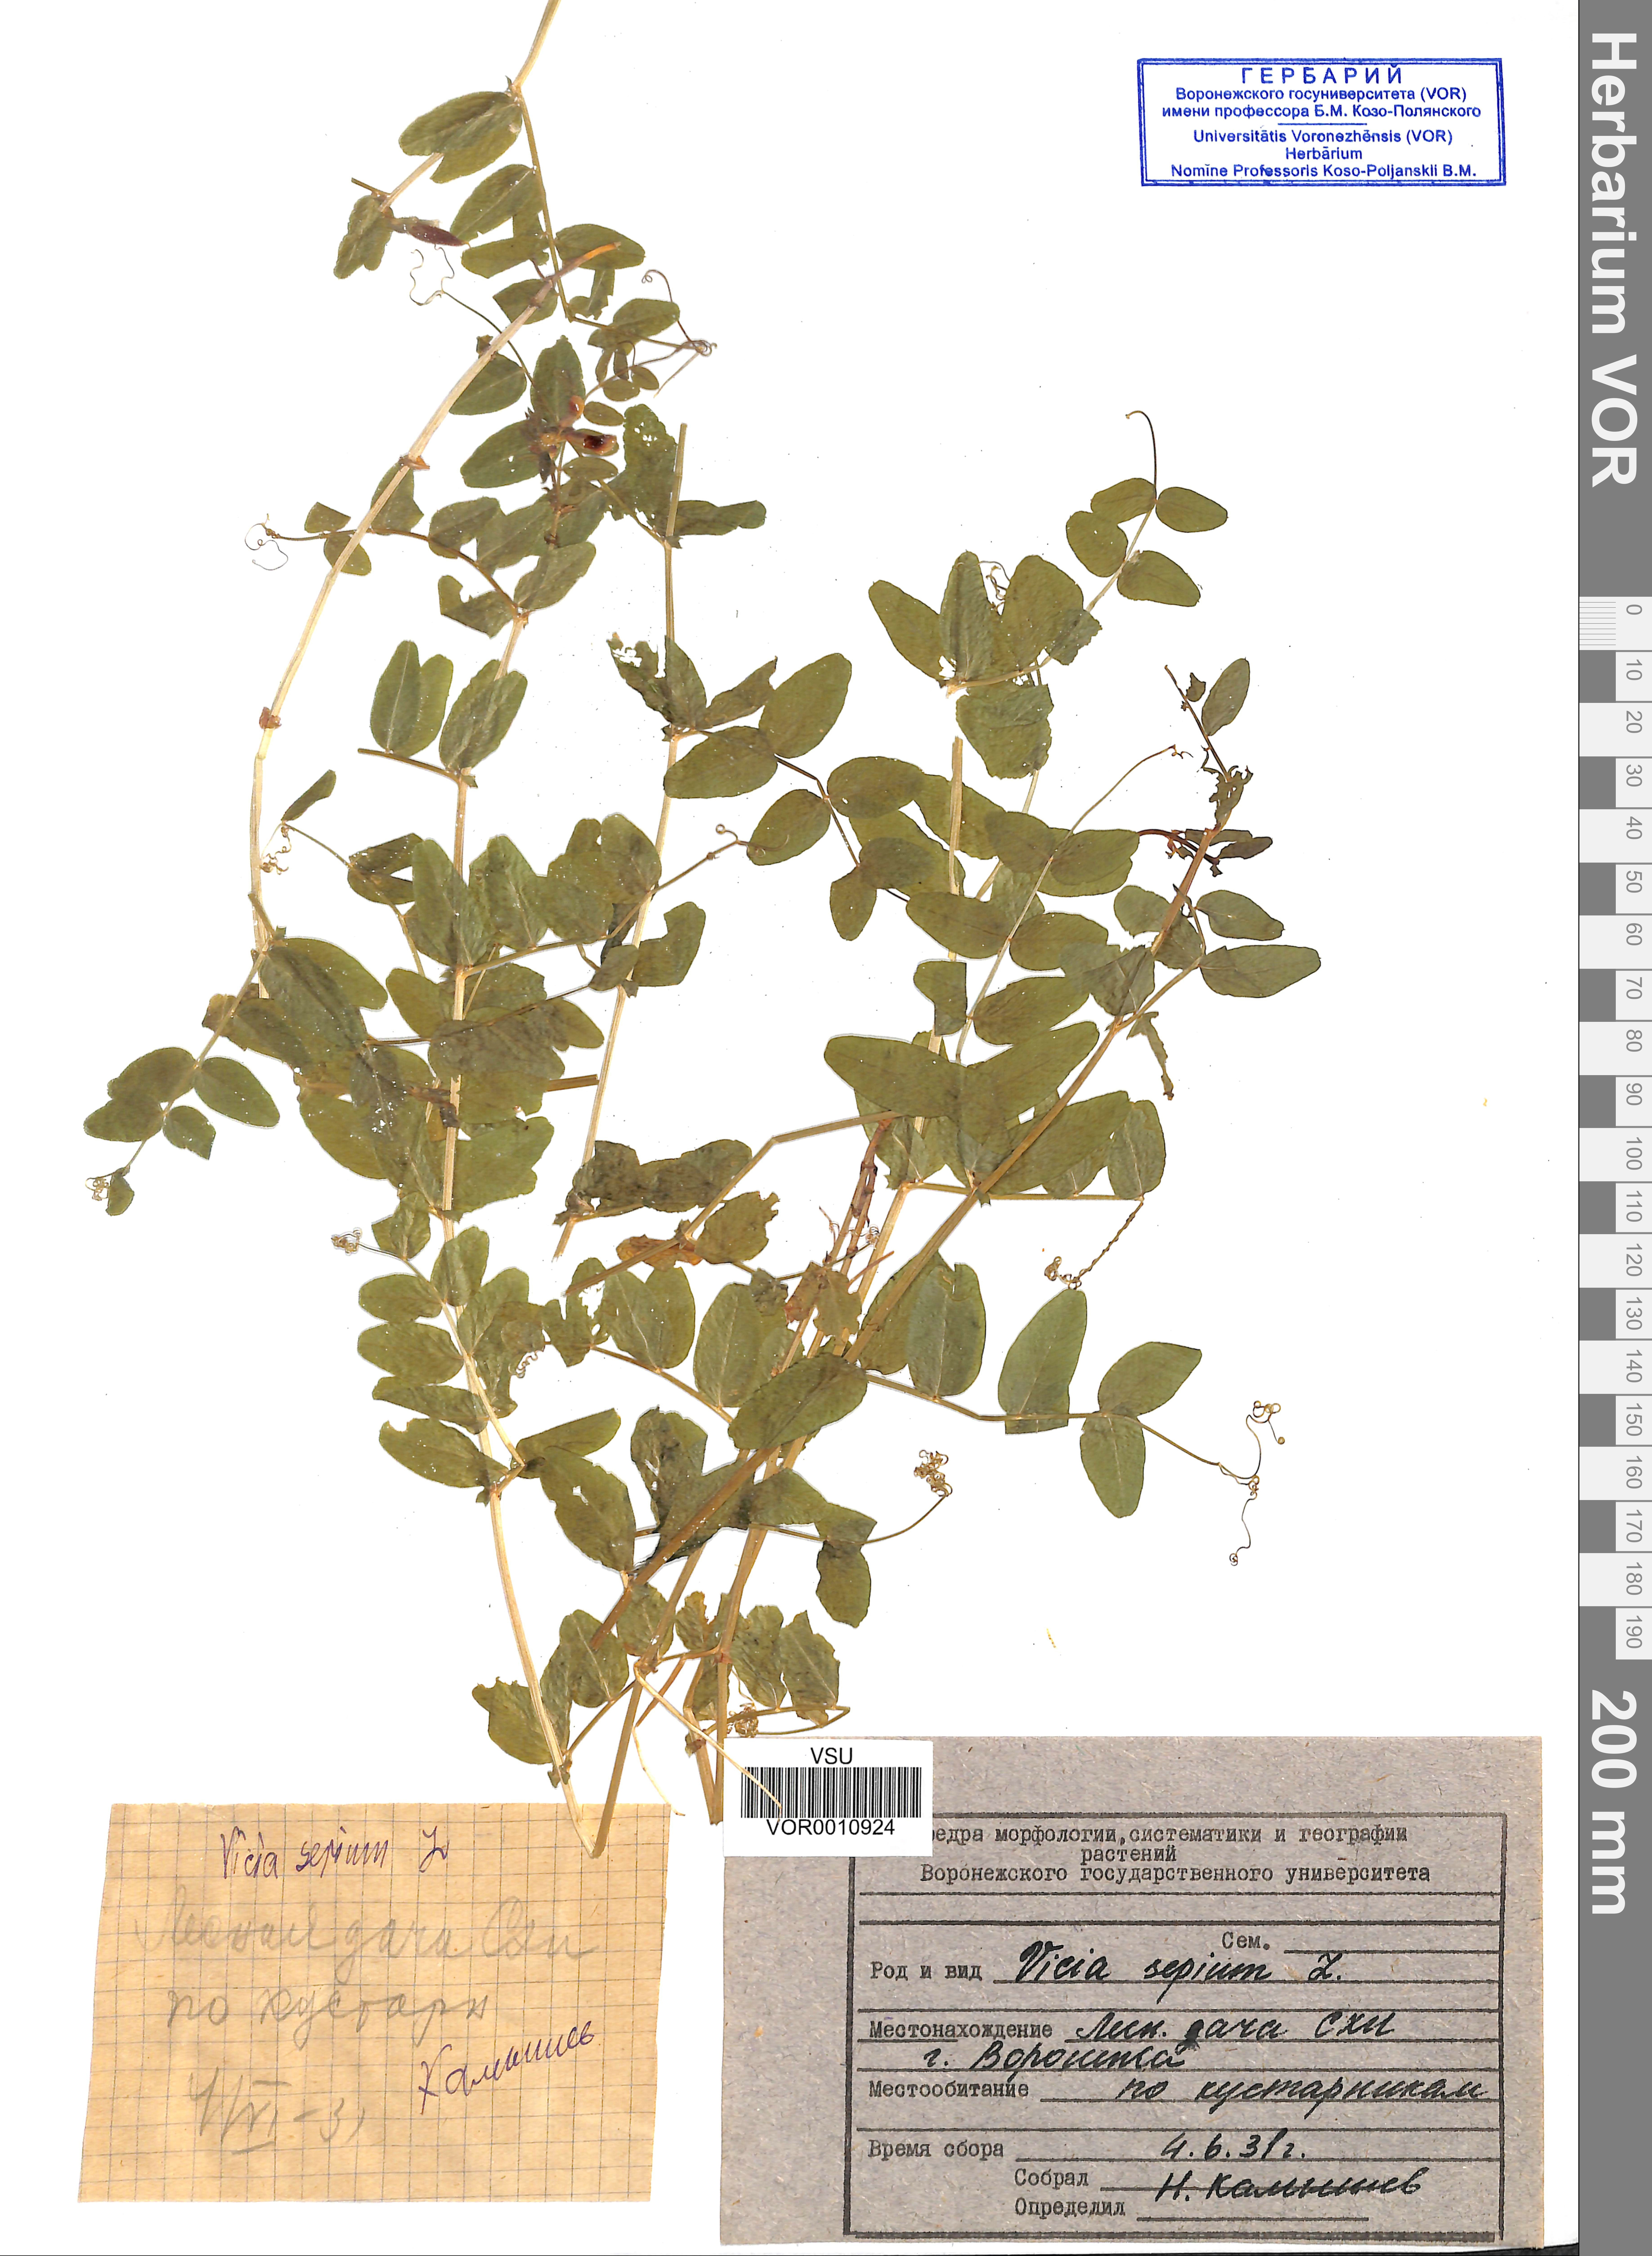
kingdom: Plantae
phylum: Tracheophyta
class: Magnoliopsida
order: Fabales
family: Fabaceae
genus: Vicia
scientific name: Vicia sepium
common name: Bush vetch
